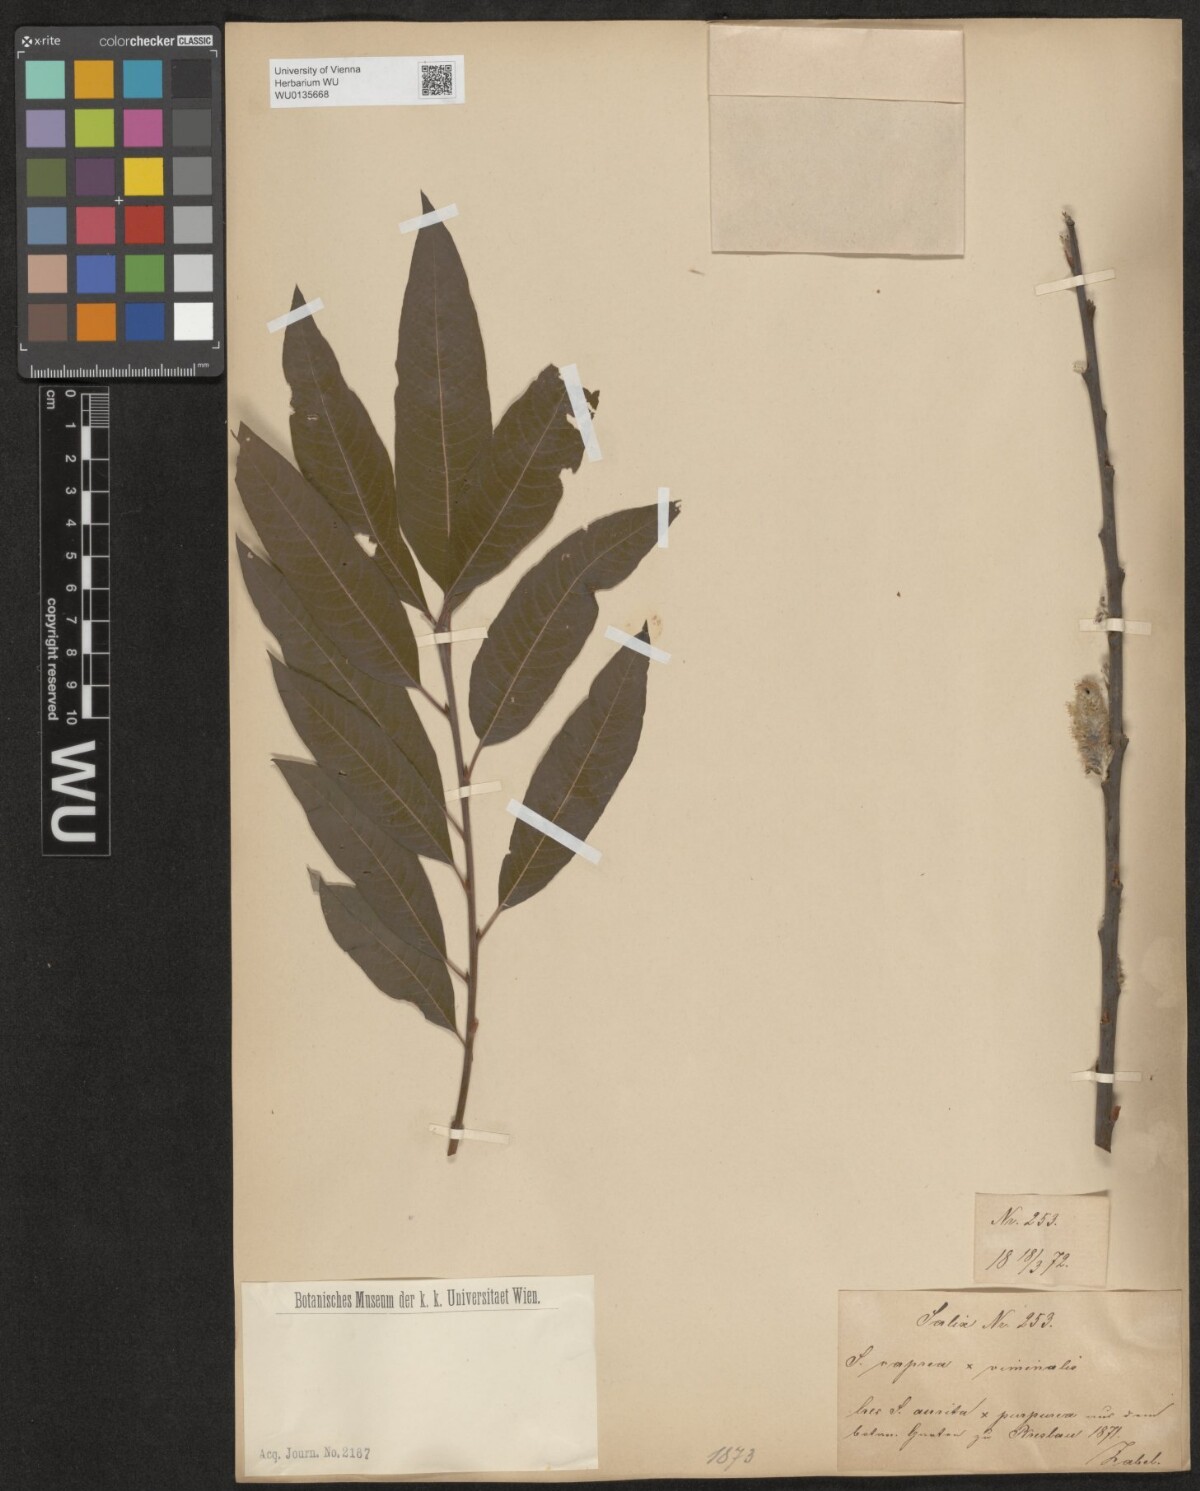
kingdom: Plantae
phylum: Tracheophyta
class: Magnoliopsida
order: Malpighiales
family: Salicaceae
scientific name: Salicaceae
